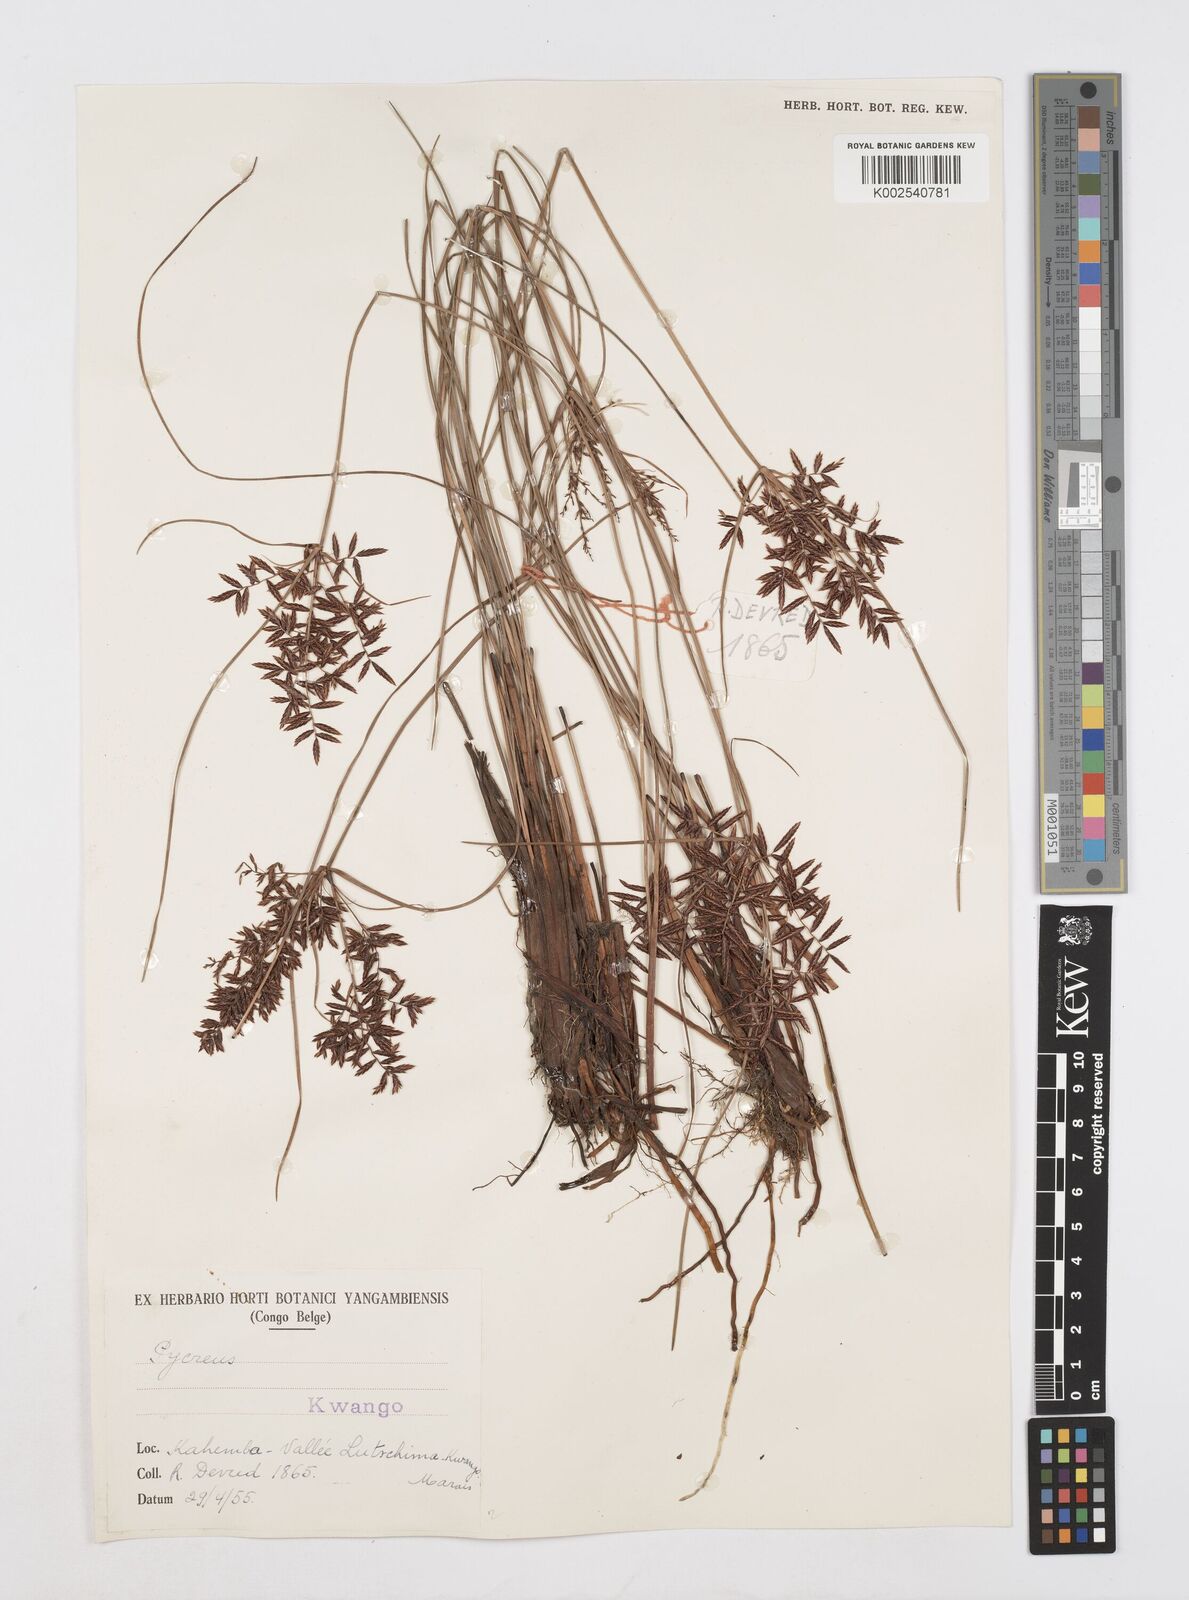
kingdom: Plantae
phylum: Tracheophyta
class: Liliopsida
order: Poales
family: Cyperaceae
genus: Cyperus
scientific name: Cyperus aethiops
